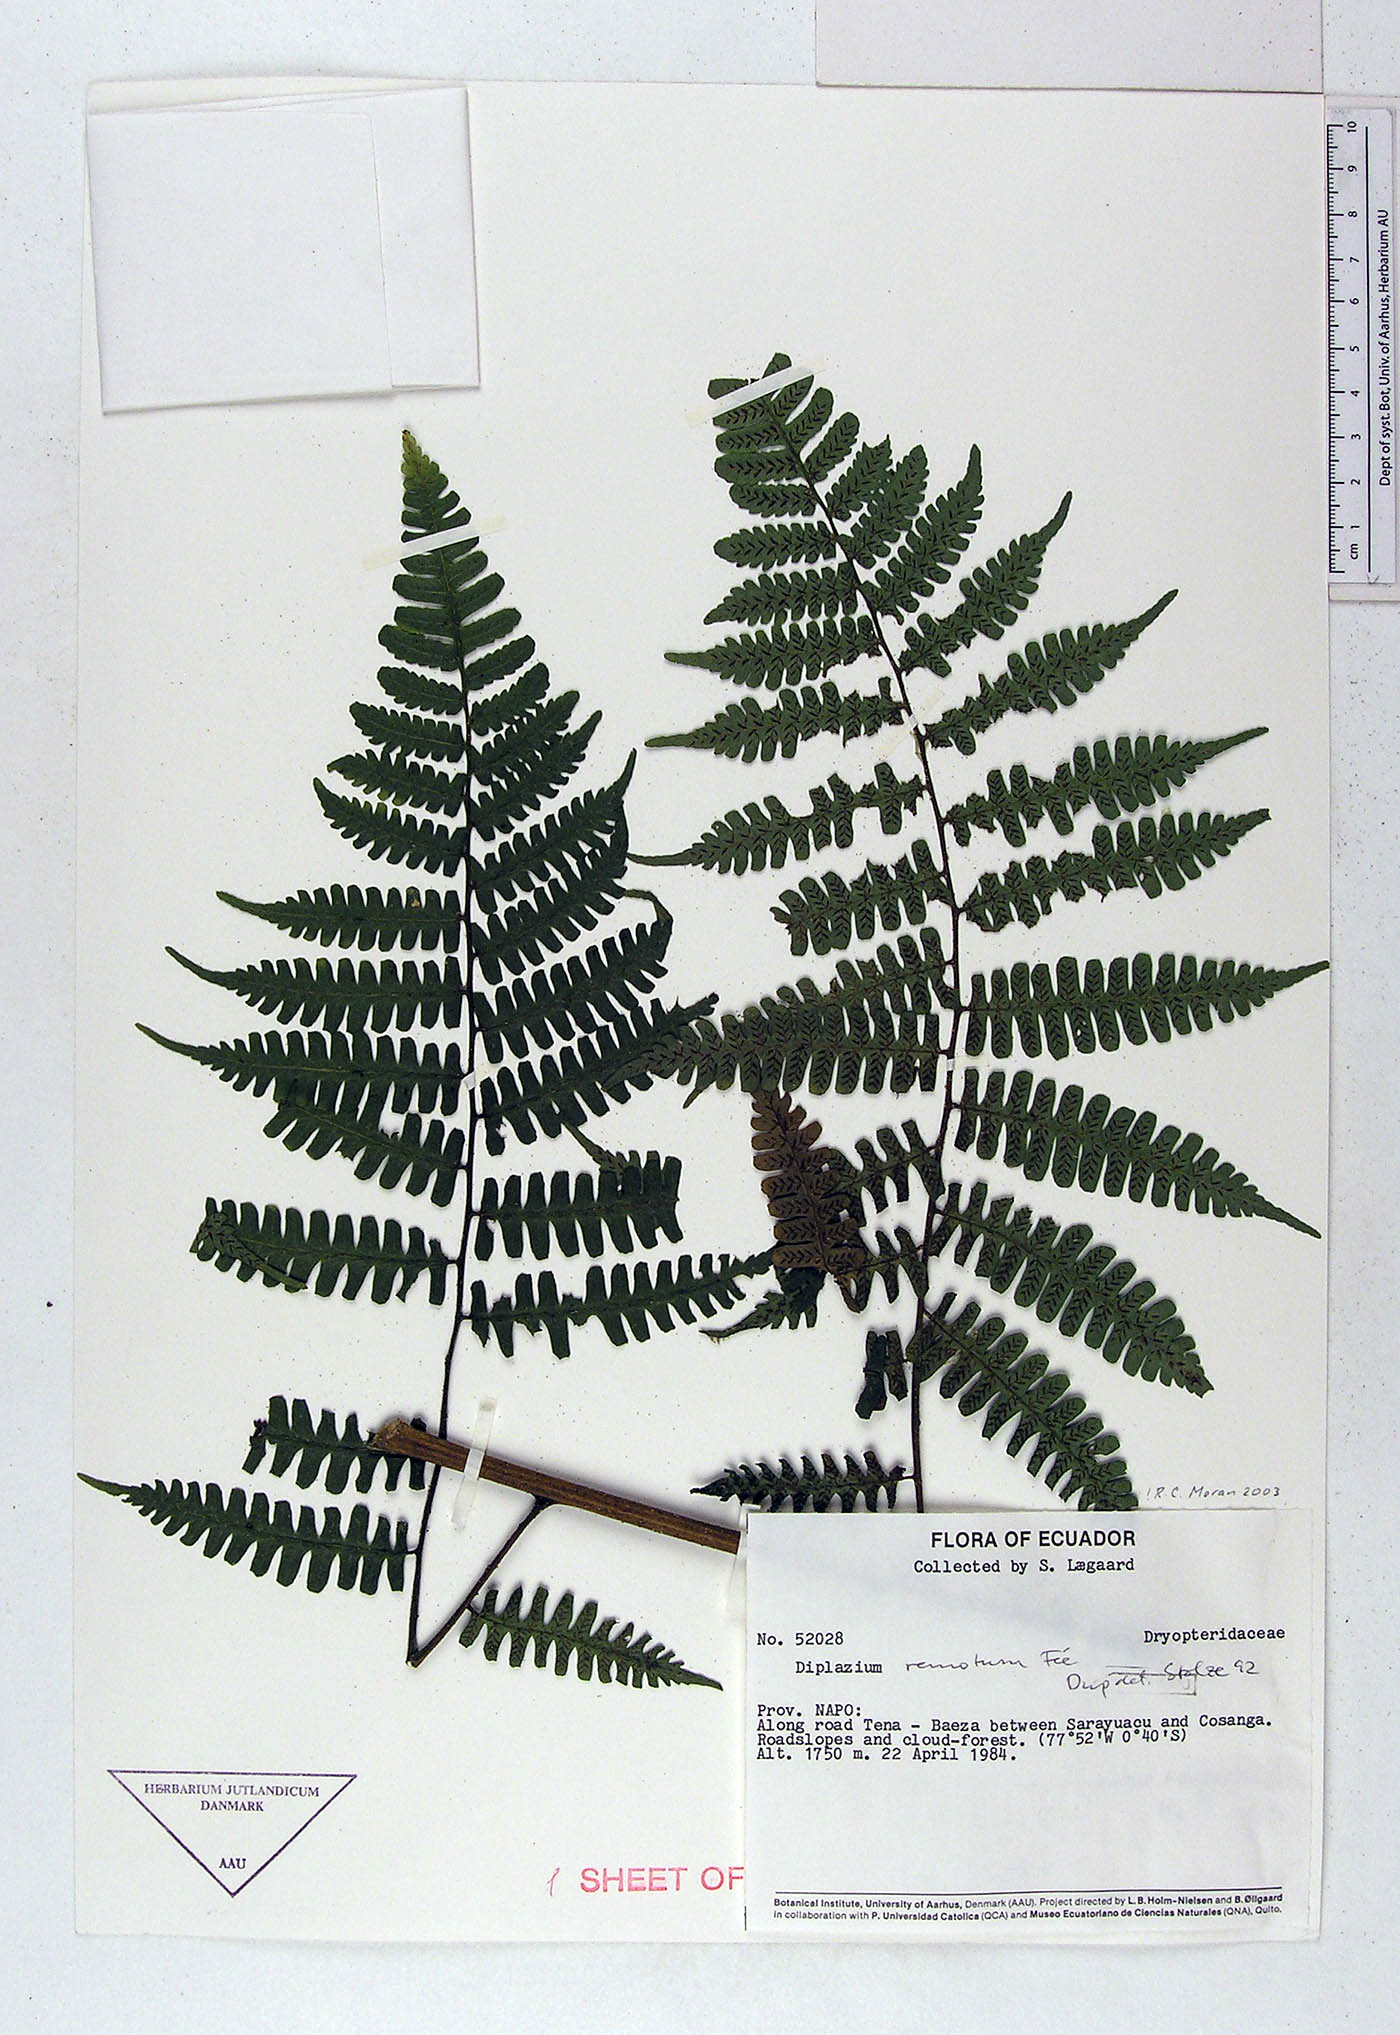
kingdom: Plantae
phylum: Tracheophyta
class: Polypodiopsida
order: Polypodiales
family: Athyriaceae
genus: Diplazium
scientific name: Diplazium rostratum
